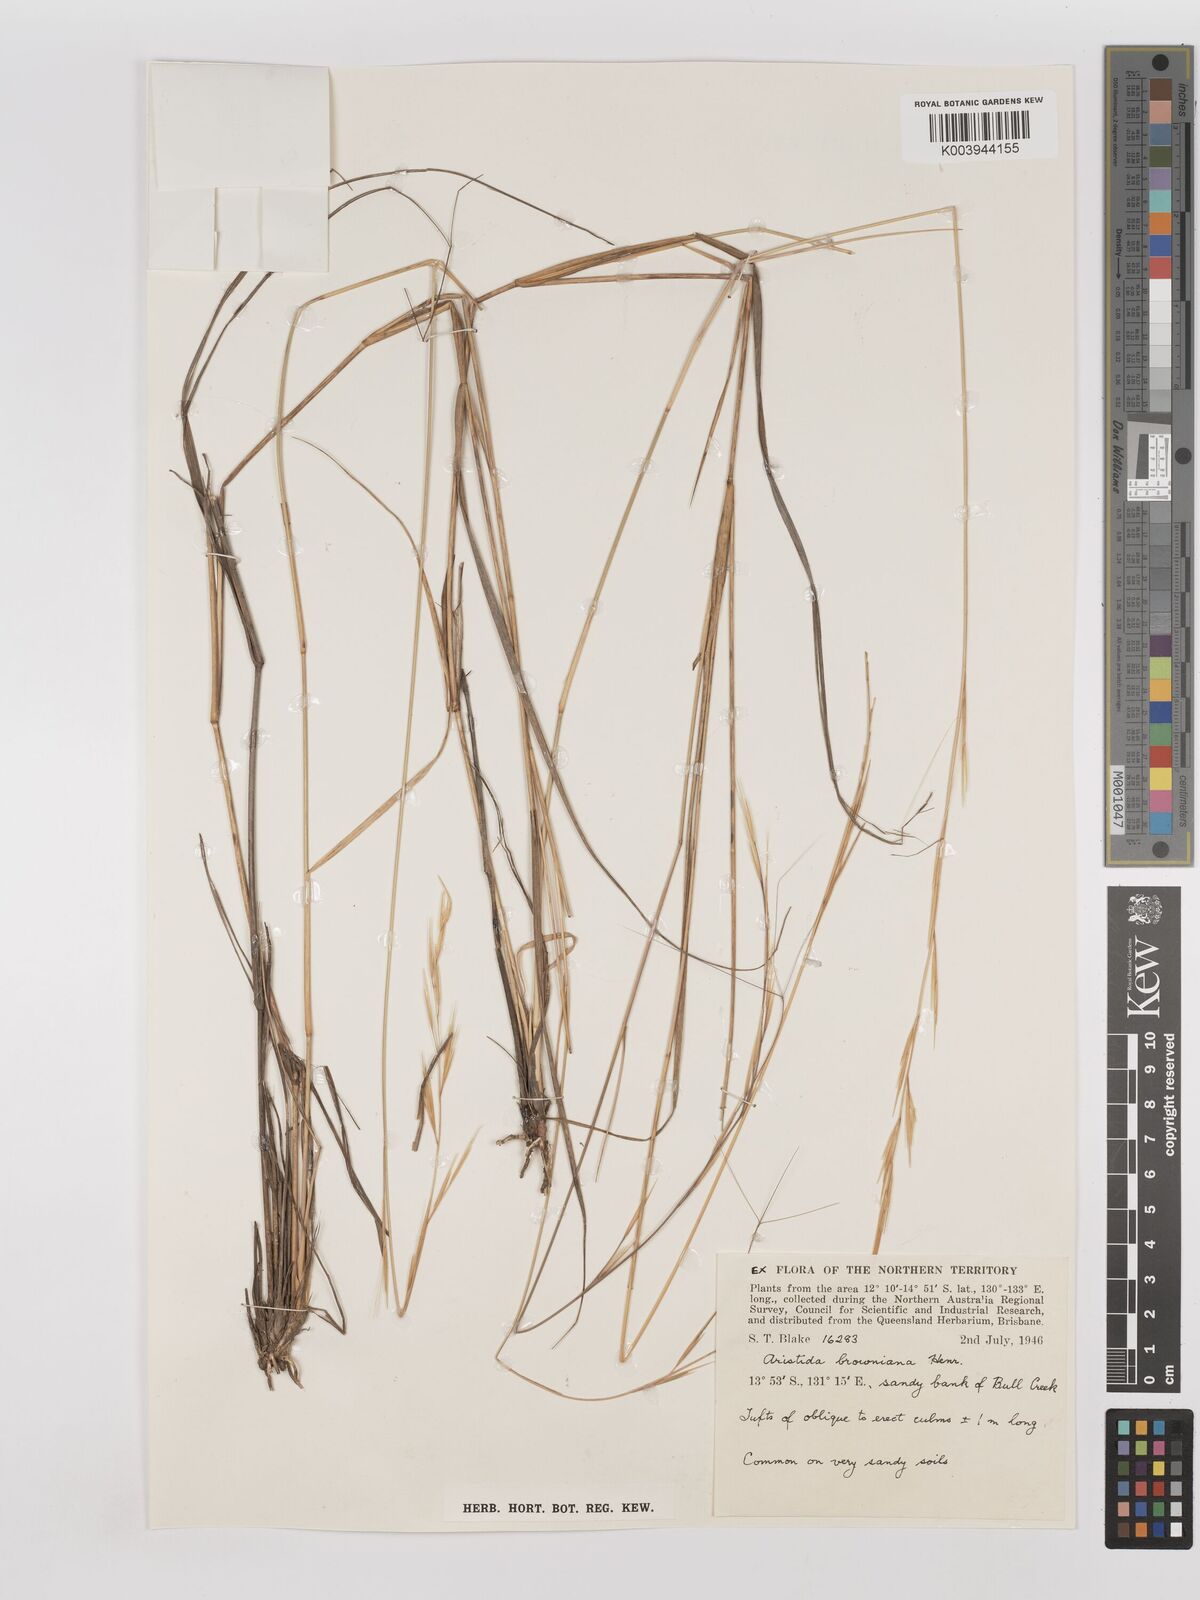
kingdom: Plantae
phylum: Tracheophyta
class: Liliopsida
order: Poales
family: Poaceae
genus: Aristida
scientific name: Aristida holathera
